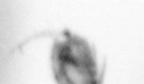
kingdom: Animalia
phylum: Arthropoda
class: Copepoda
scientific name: Copepoda
